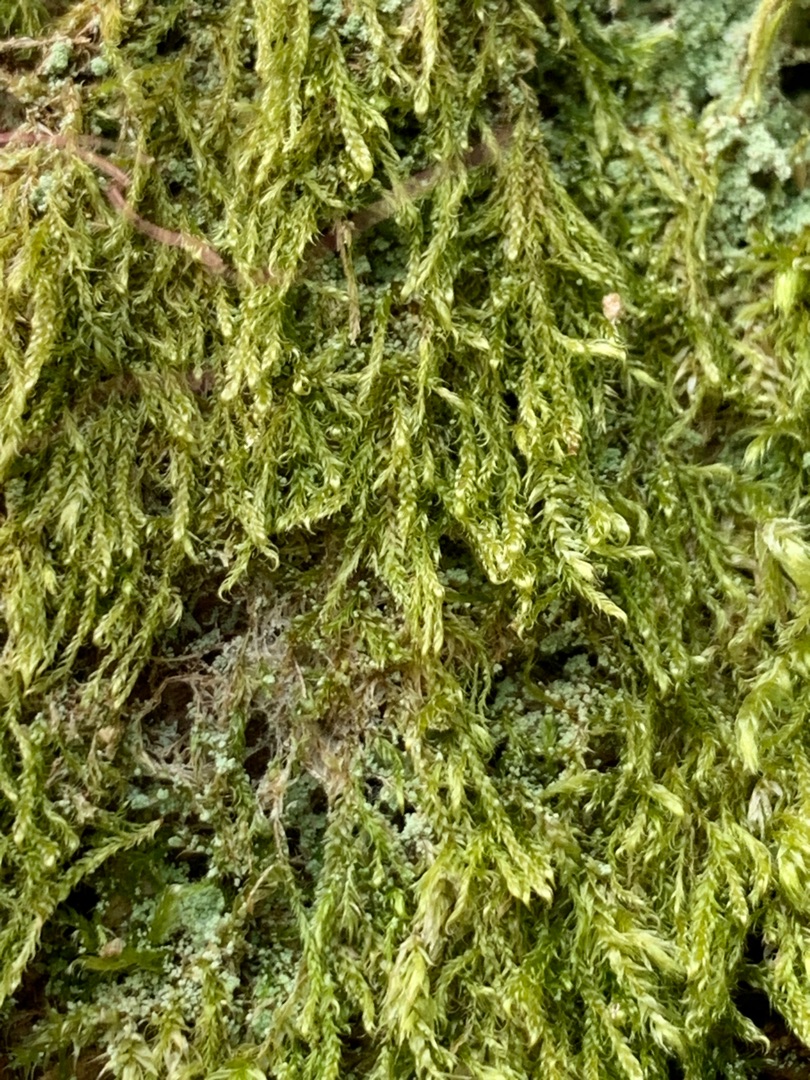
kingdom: Plantae
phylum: Bryophyta
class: Bryopsida
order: Hypnales
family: Hypnaceae
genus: Hypnum
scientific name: Hypnum
